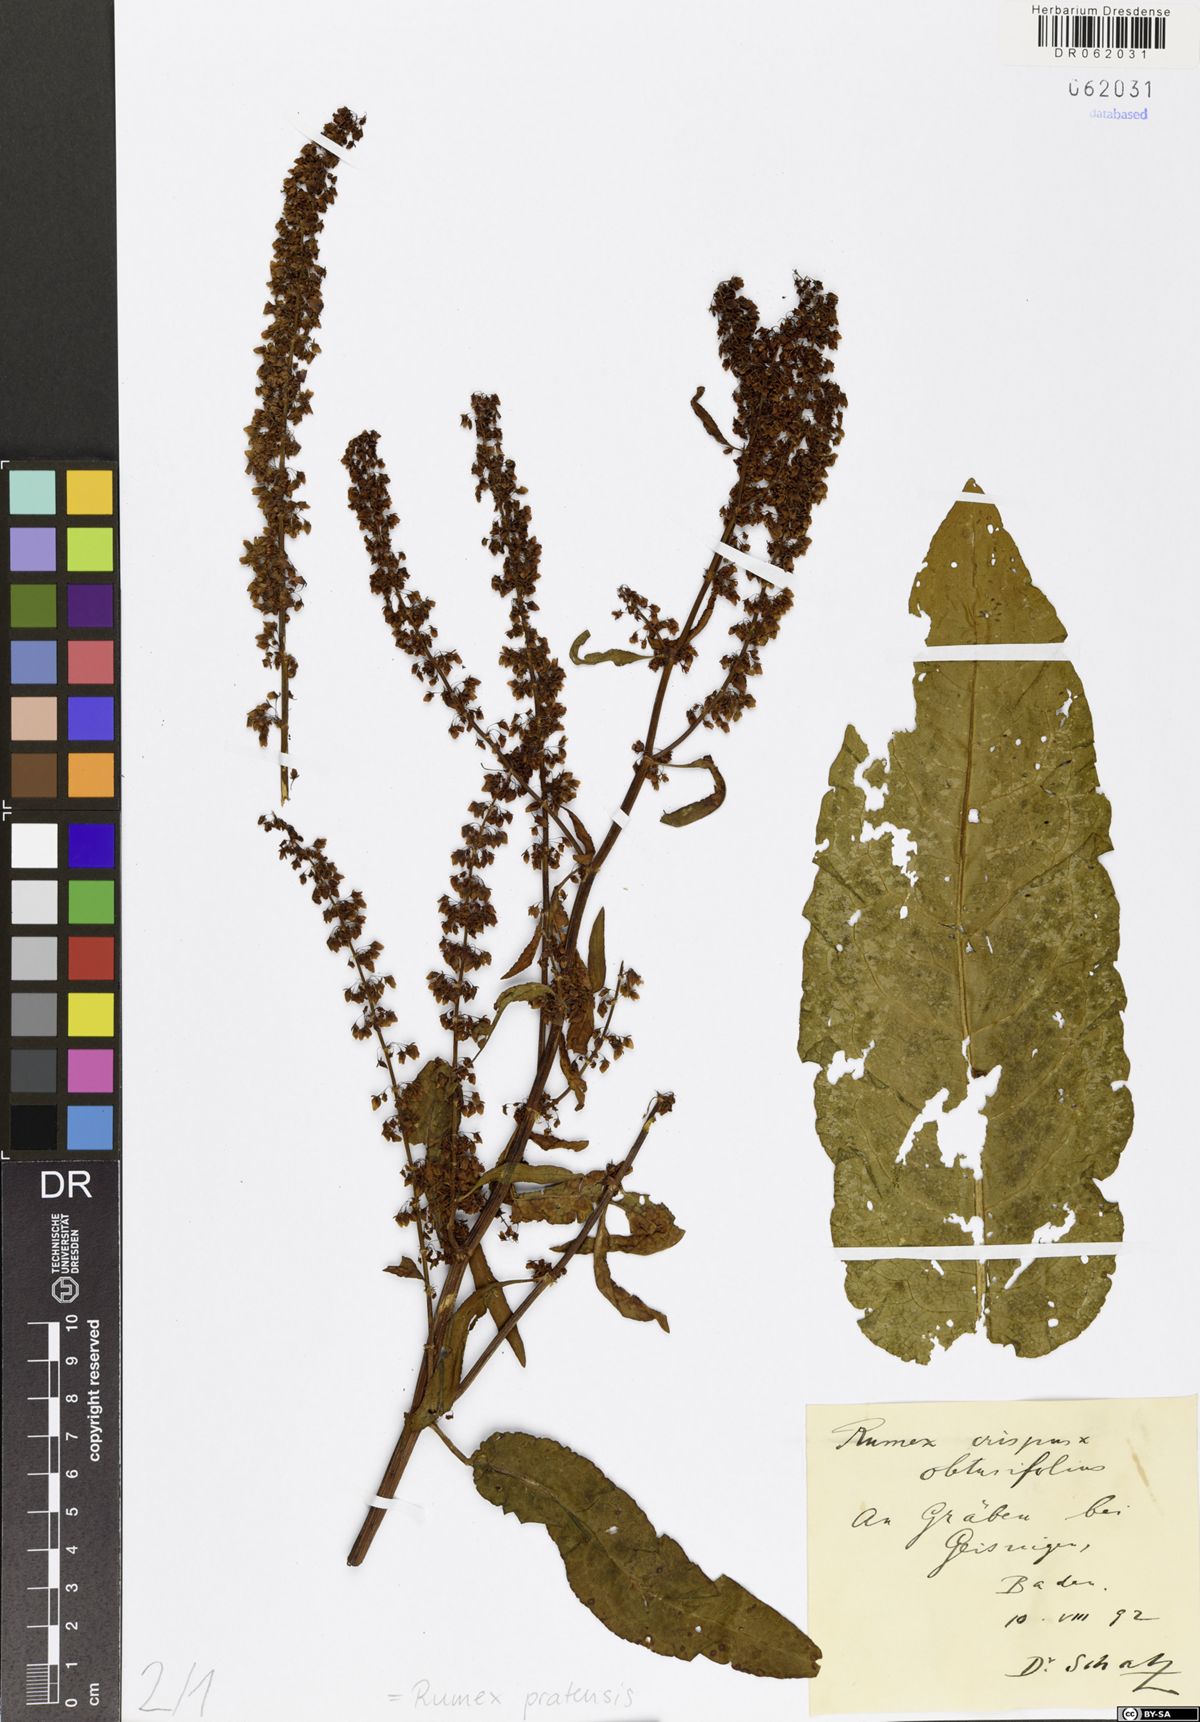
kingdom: Plantae
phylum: Tracheophyta
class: Magnoliopsida
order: Caryophyllales
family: Polygonaceae
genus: Rumex
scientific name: Rumex pratensis
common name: Knotweed
